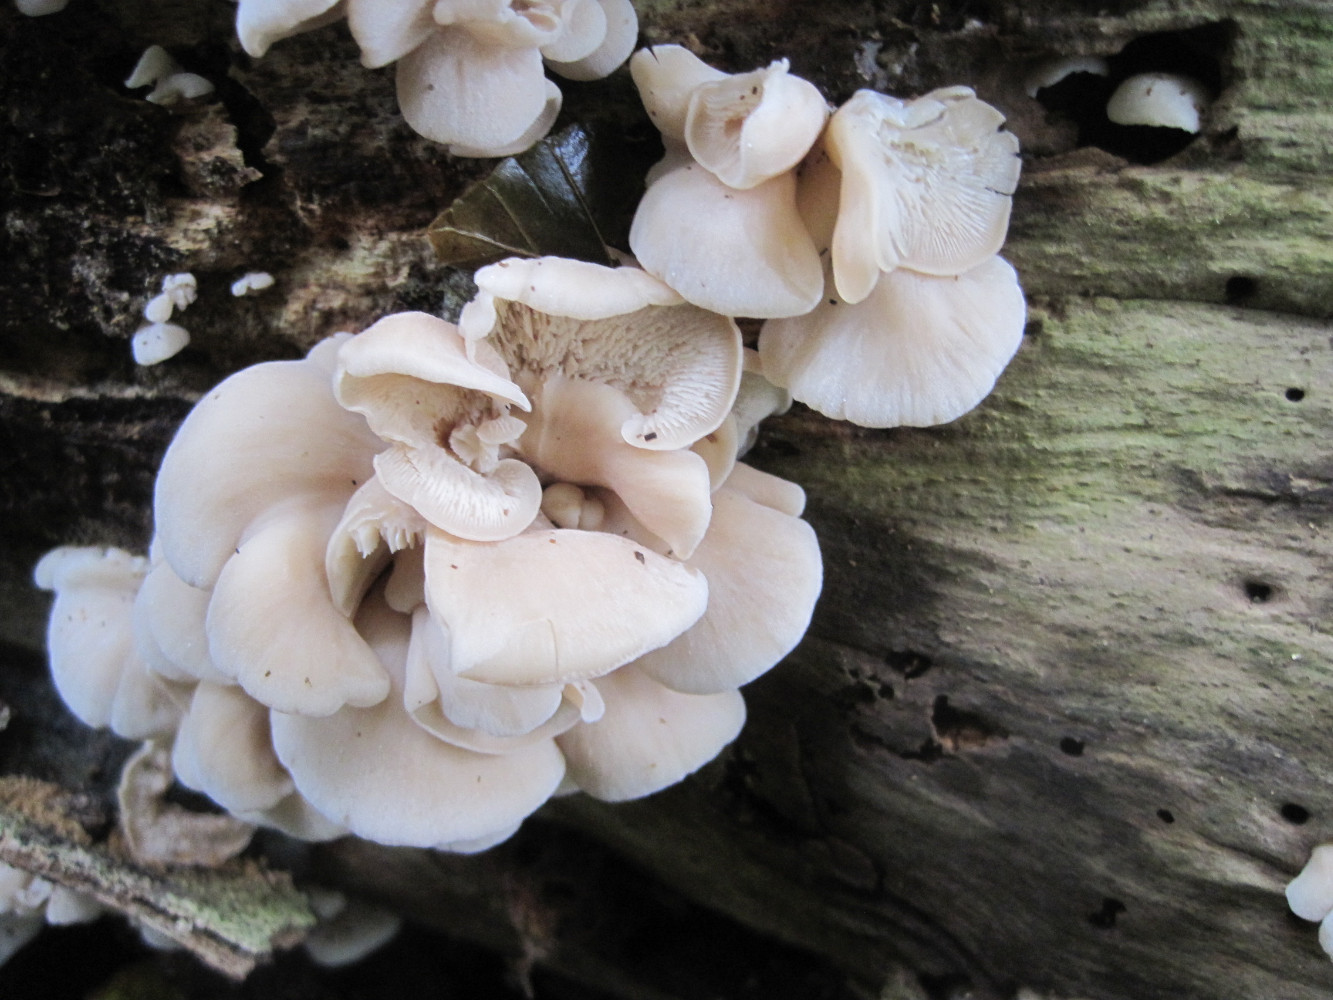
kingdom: Fungi
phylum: Basidiomycota
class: Agaricomycetes
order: Russulales
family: Auriscalpiaceae
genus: Lentinellus
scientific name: Lentinellus ursinus
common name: børstehåret savbladhat
